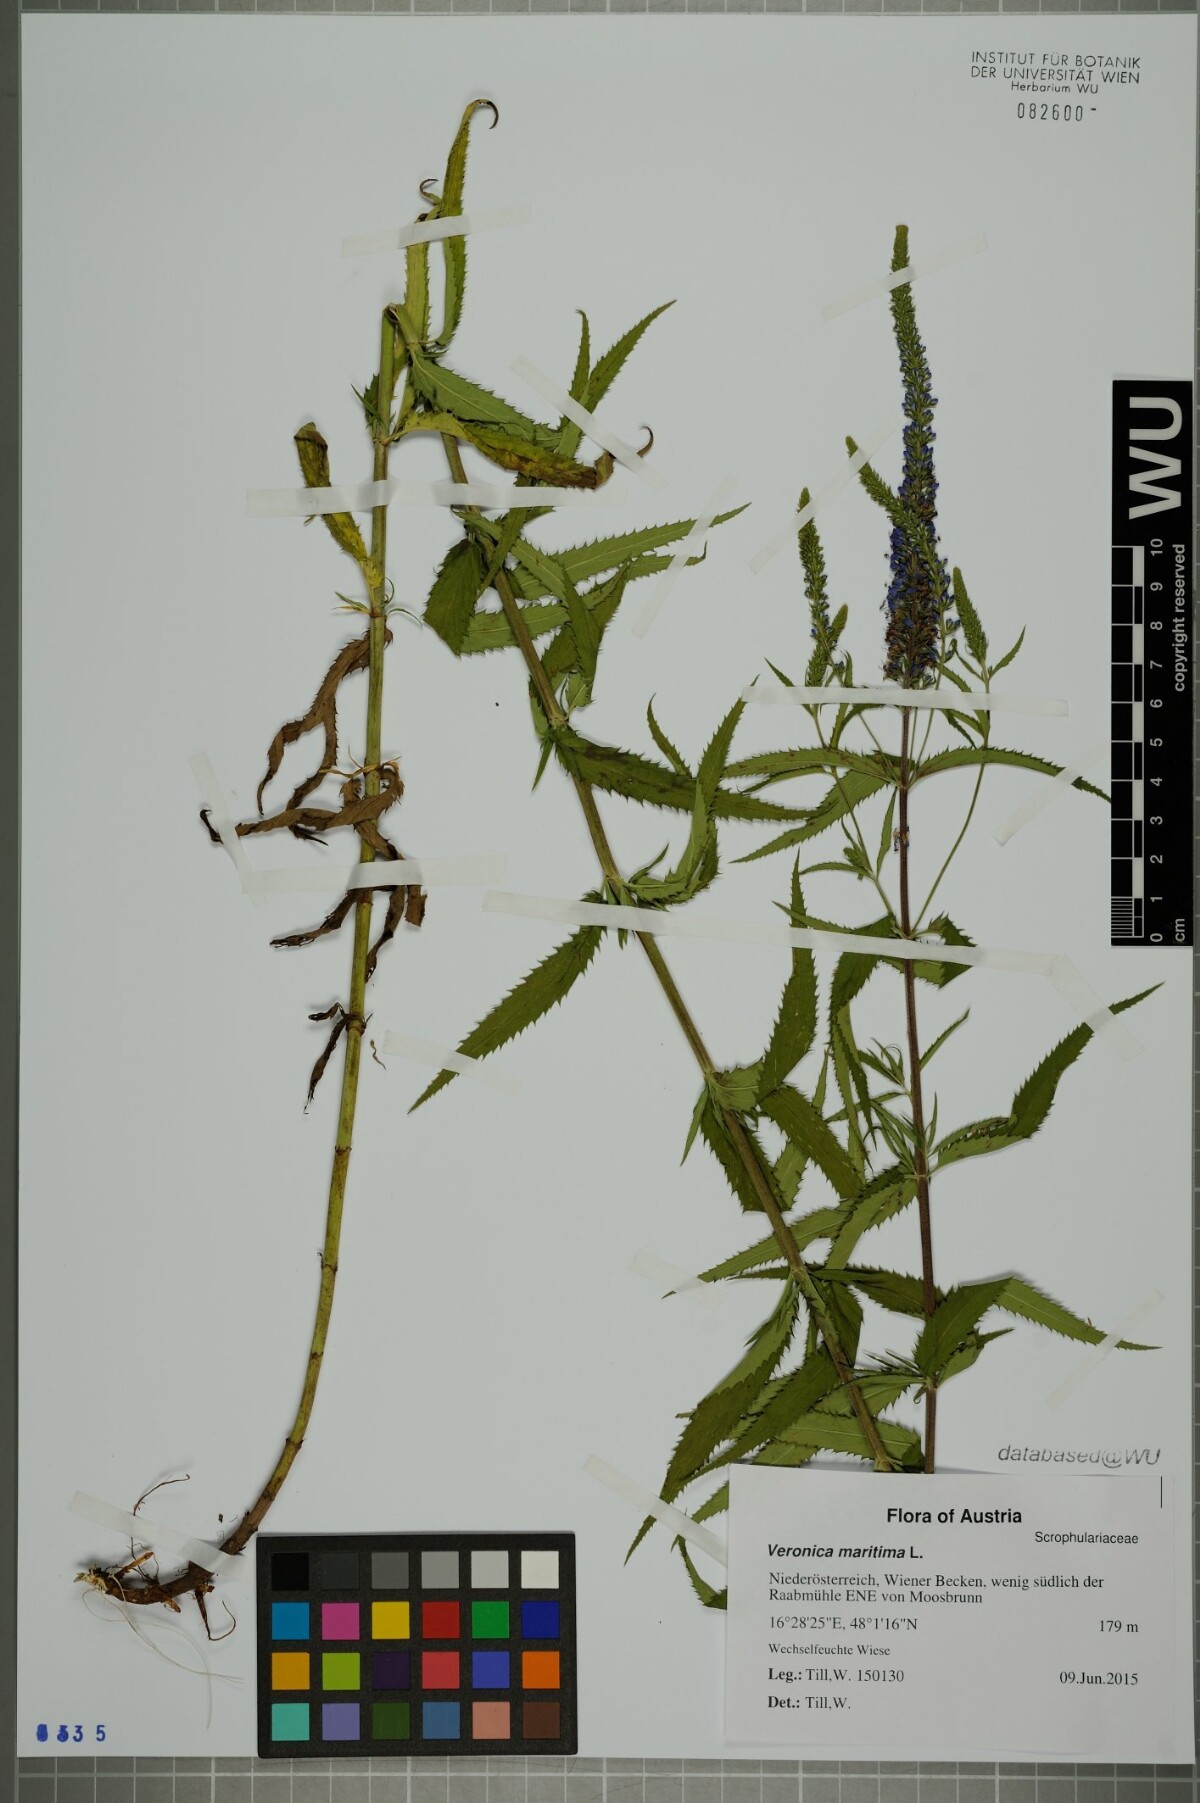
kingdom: Plantae
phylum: Tracheophyta
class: Magnoliopsida
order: Lamiales
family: Plantaginaceae
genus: Veronica
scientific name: Veronica maritima
